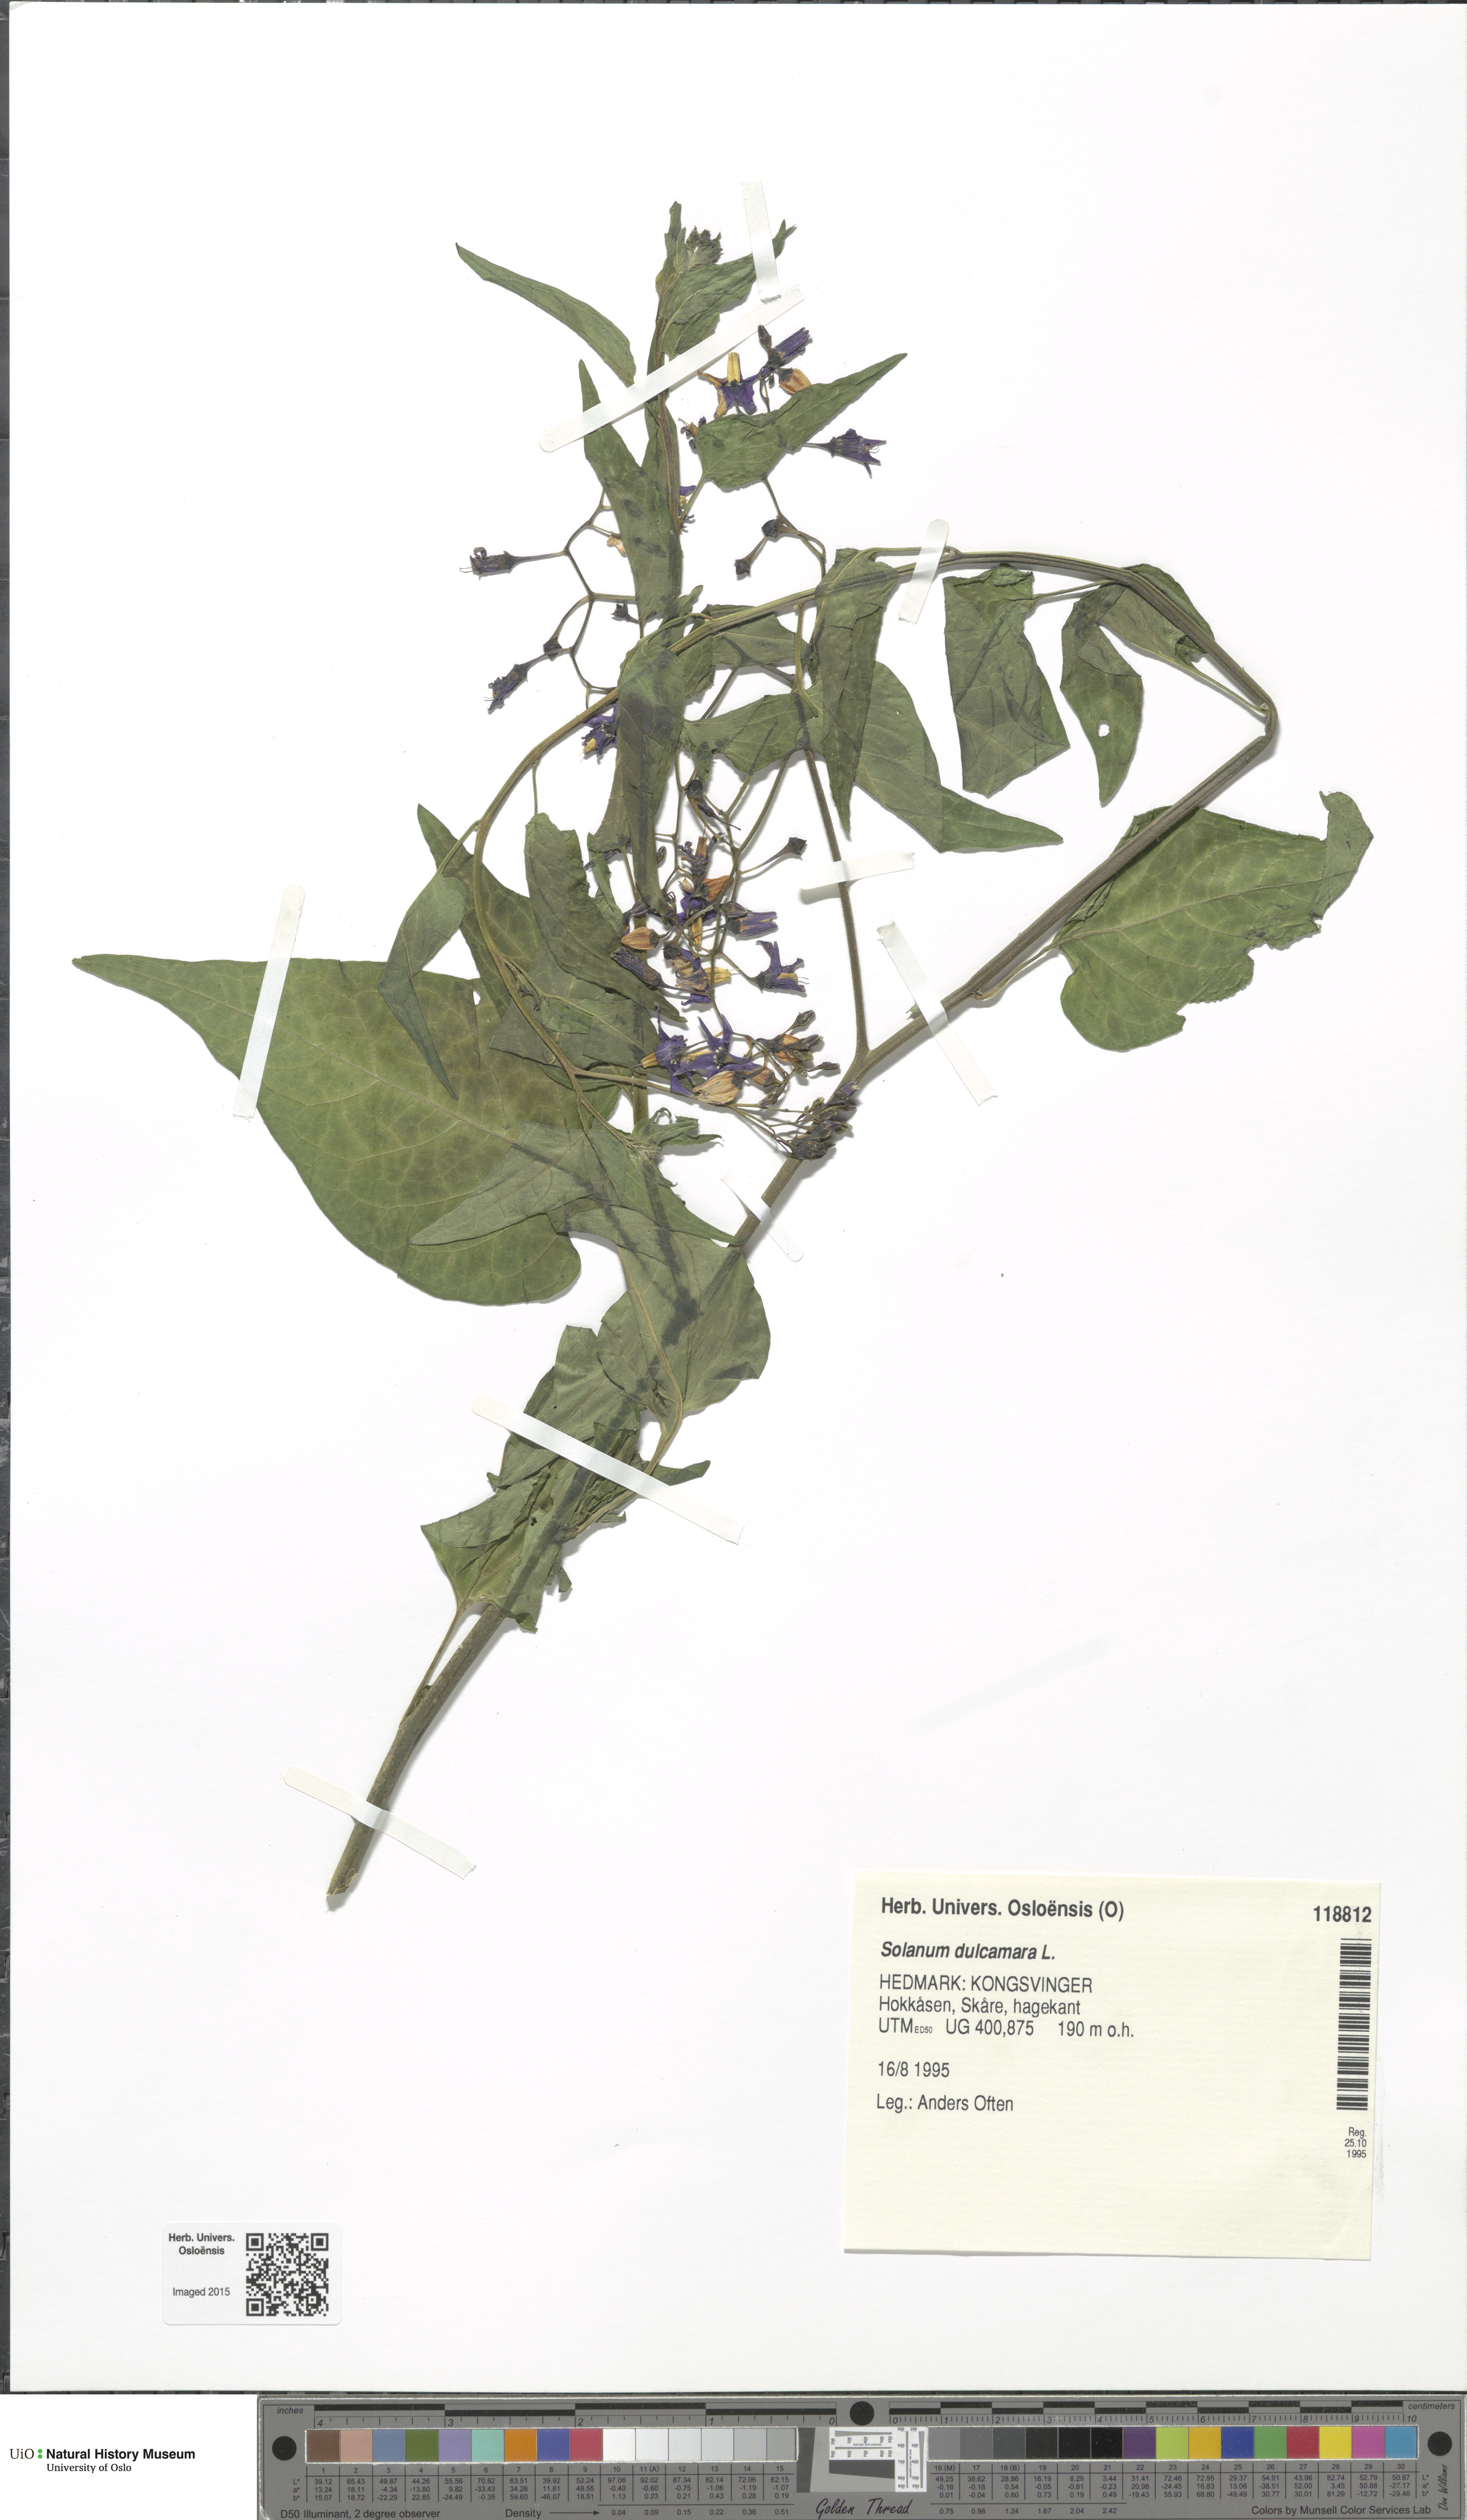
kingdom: Plantae
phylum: Tracheophyta
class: Magnoliopsida
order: Solanales
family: Solanaceae
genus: Solanum
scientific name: Solanum dulcamara
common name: Climbing nightshade
